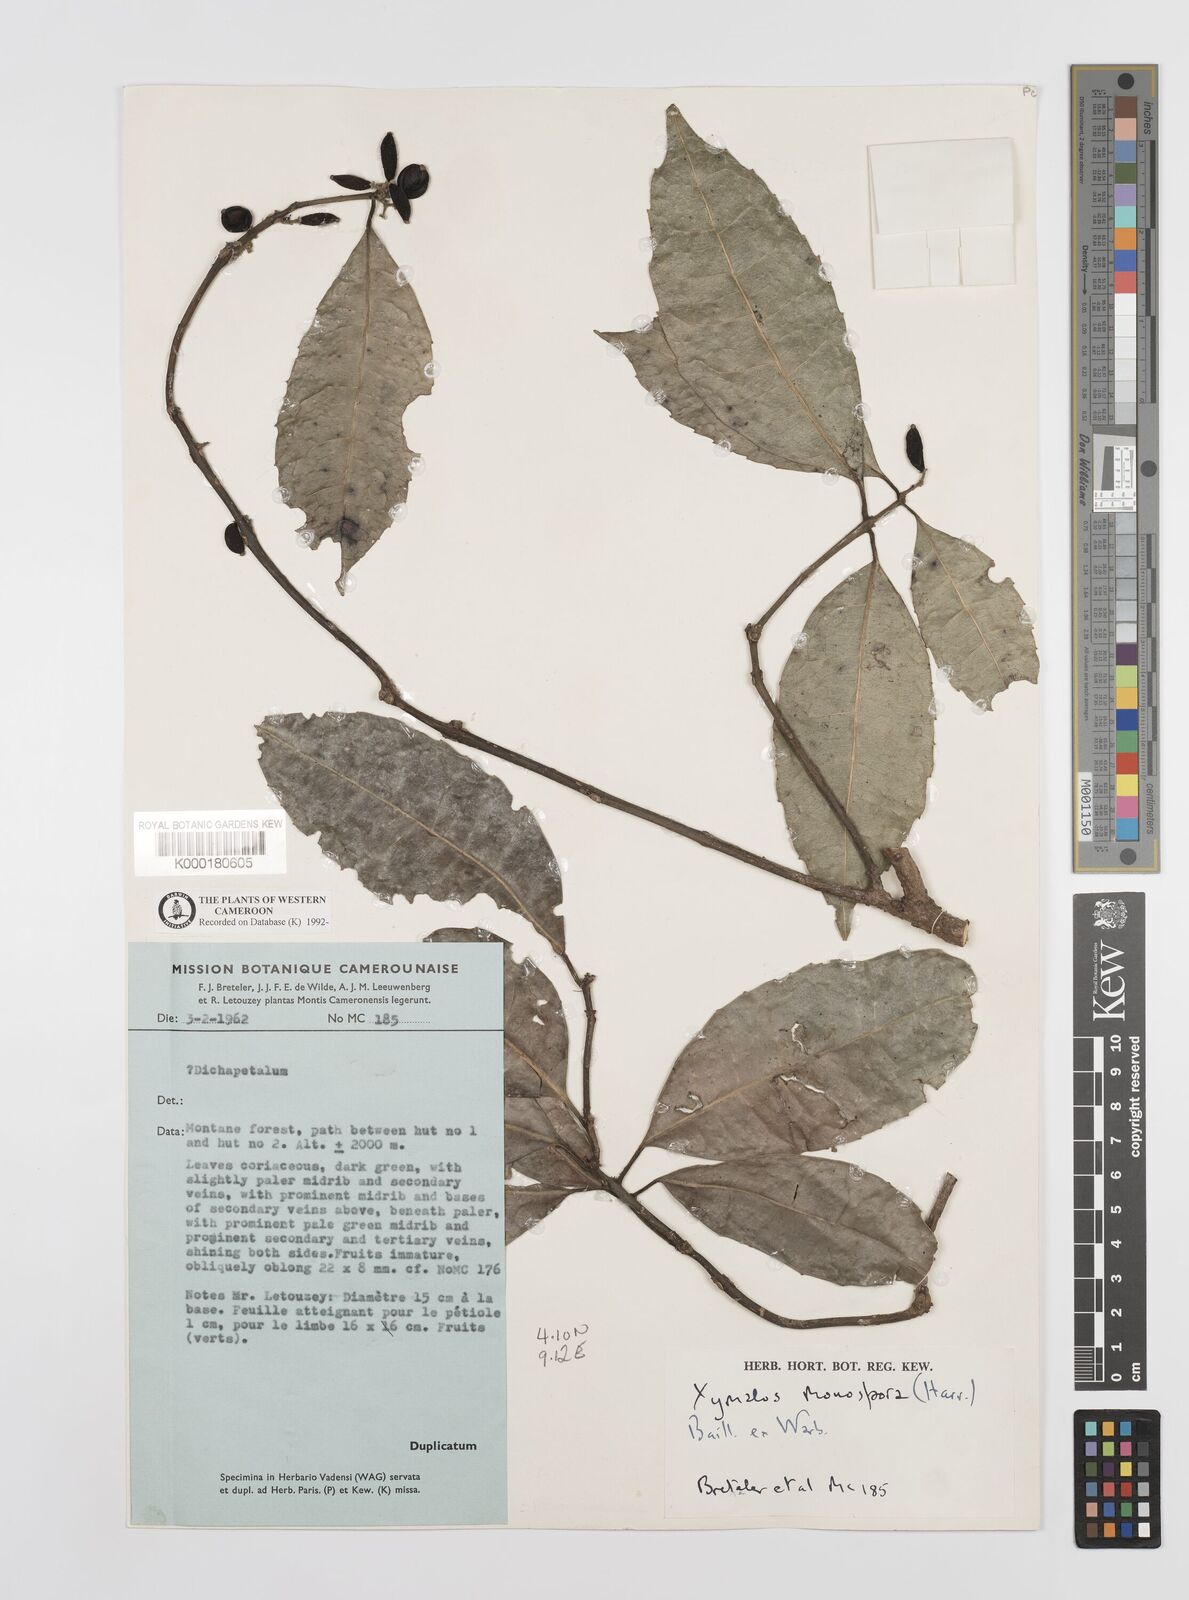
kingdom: Plantae
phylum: Tracheophyta
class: Magnoliopsida
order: Laurales
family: Monimiaceae
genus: Xymalos
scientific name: Xymalos
